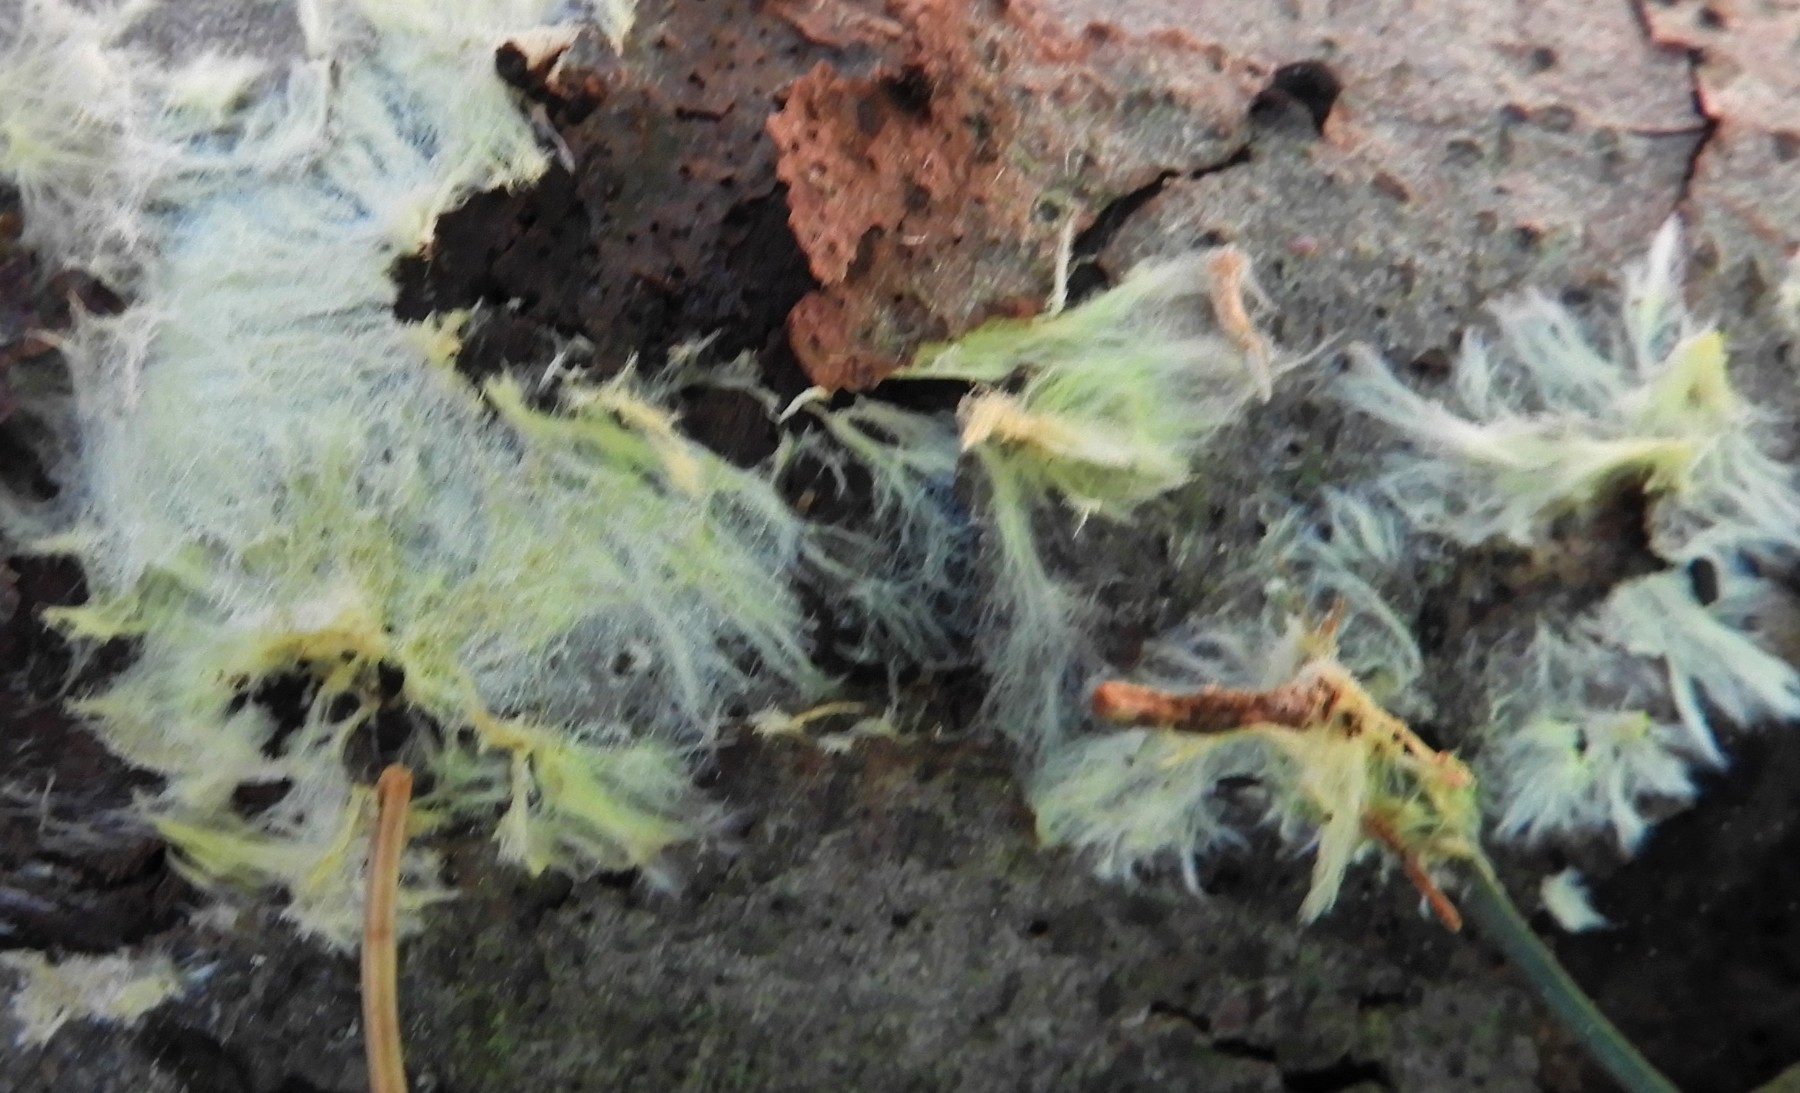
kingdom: Fungi
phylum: Basidiomycota
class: Agaricomycetes
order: Russulales
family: Xenasmataceae
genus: Xenasmatella
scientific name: Xenasmatella vaga
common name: svovl-strenghinde
